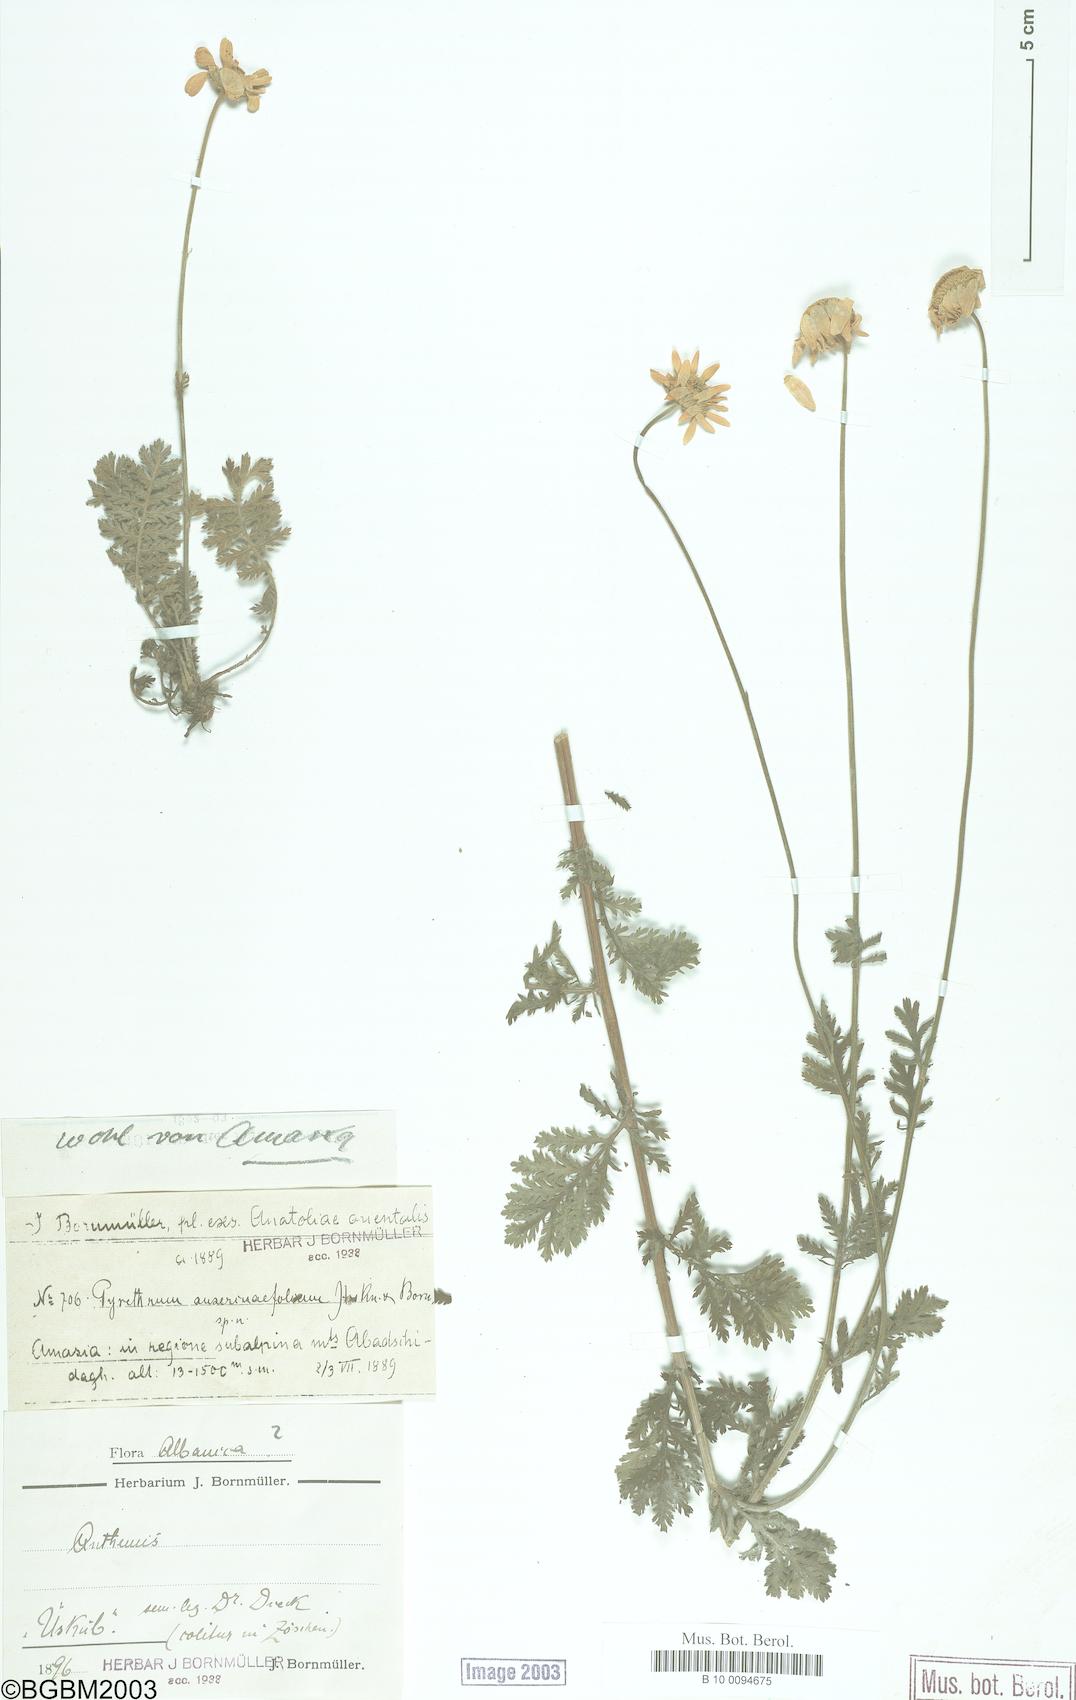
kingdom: Plantae
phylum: Tracheophyta
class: Magnoliopsida
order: Asterales
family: Asteraceae
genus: Tanacetum
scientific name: Tanacetum poteriifolium
